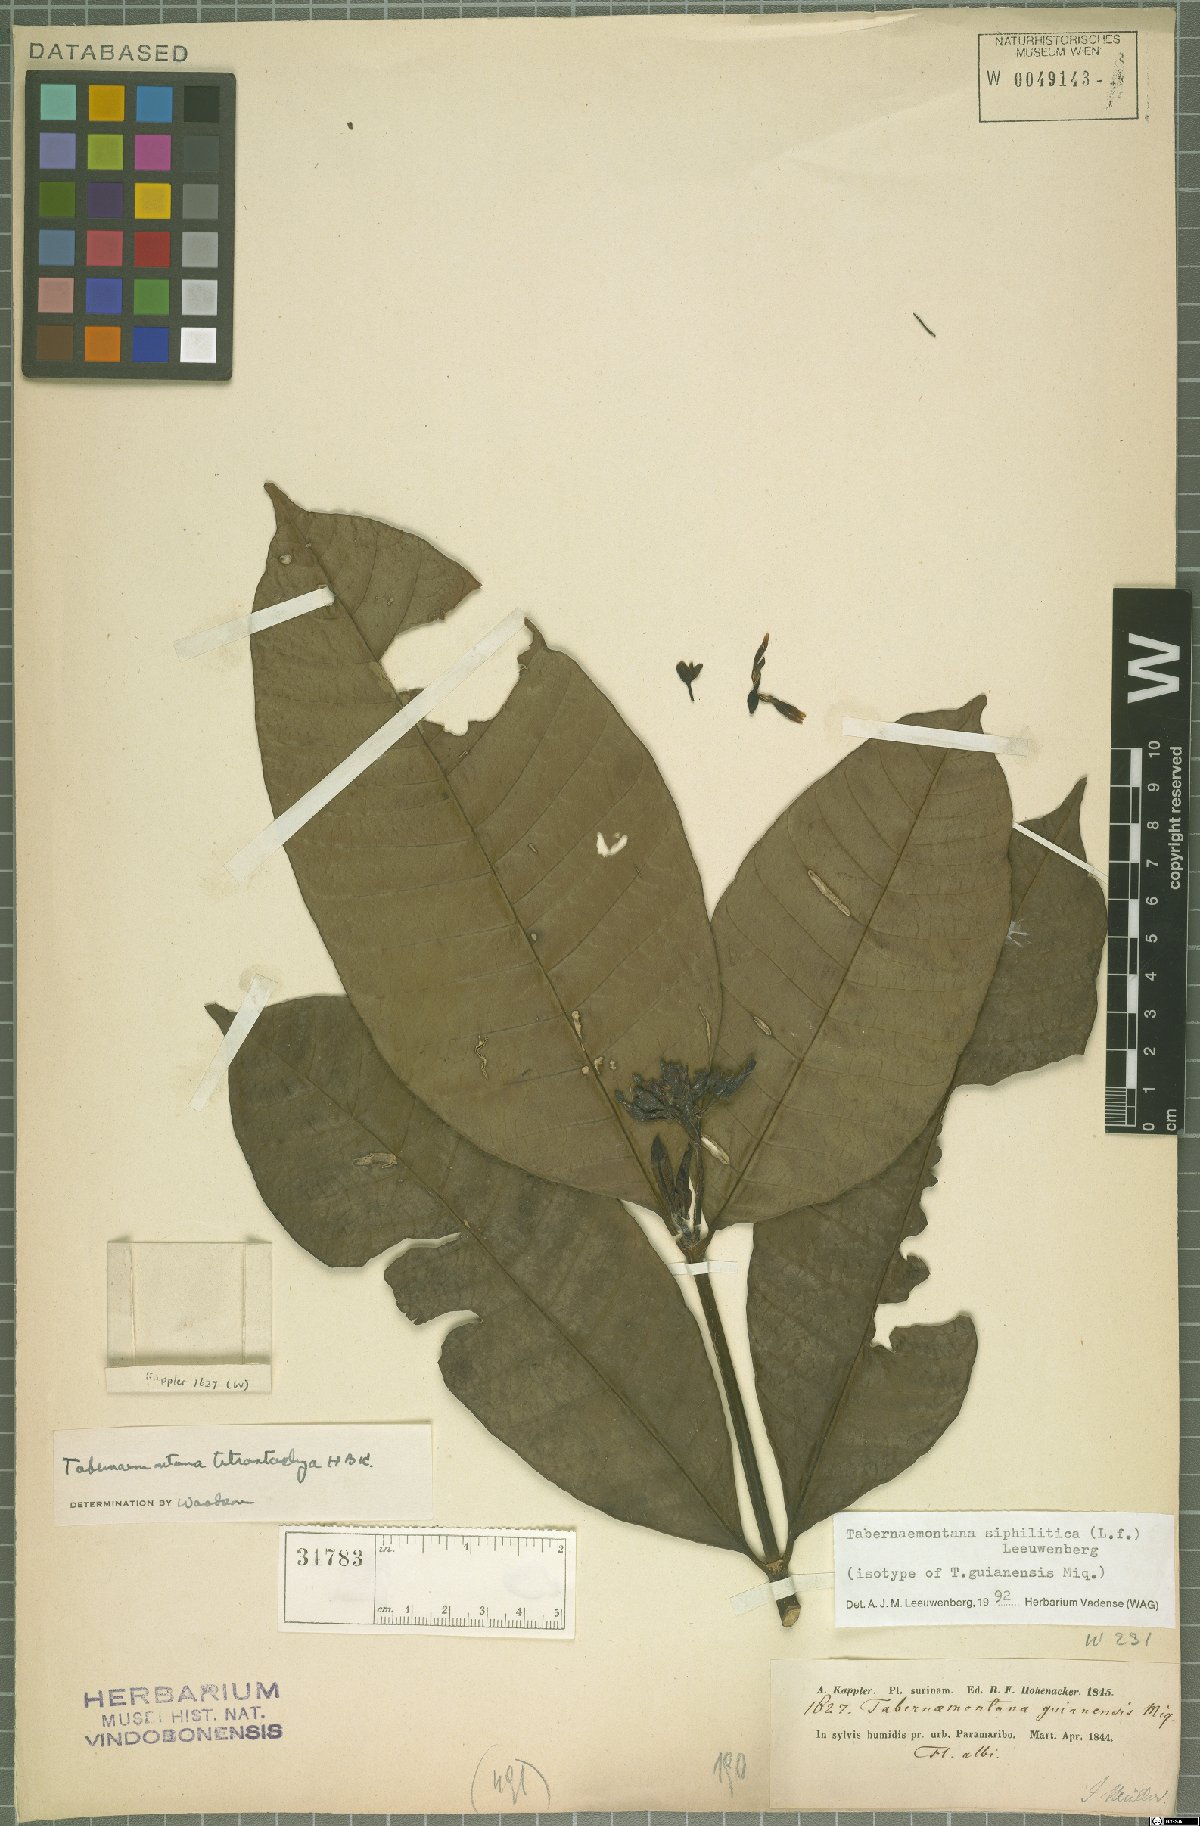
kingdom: Plantae
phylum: Tracheophyta
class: Magnoliopsida
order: Gentianales
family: Apocynaceae
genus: Tabernaemontana
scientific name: Tabernaemontana siphilitica
